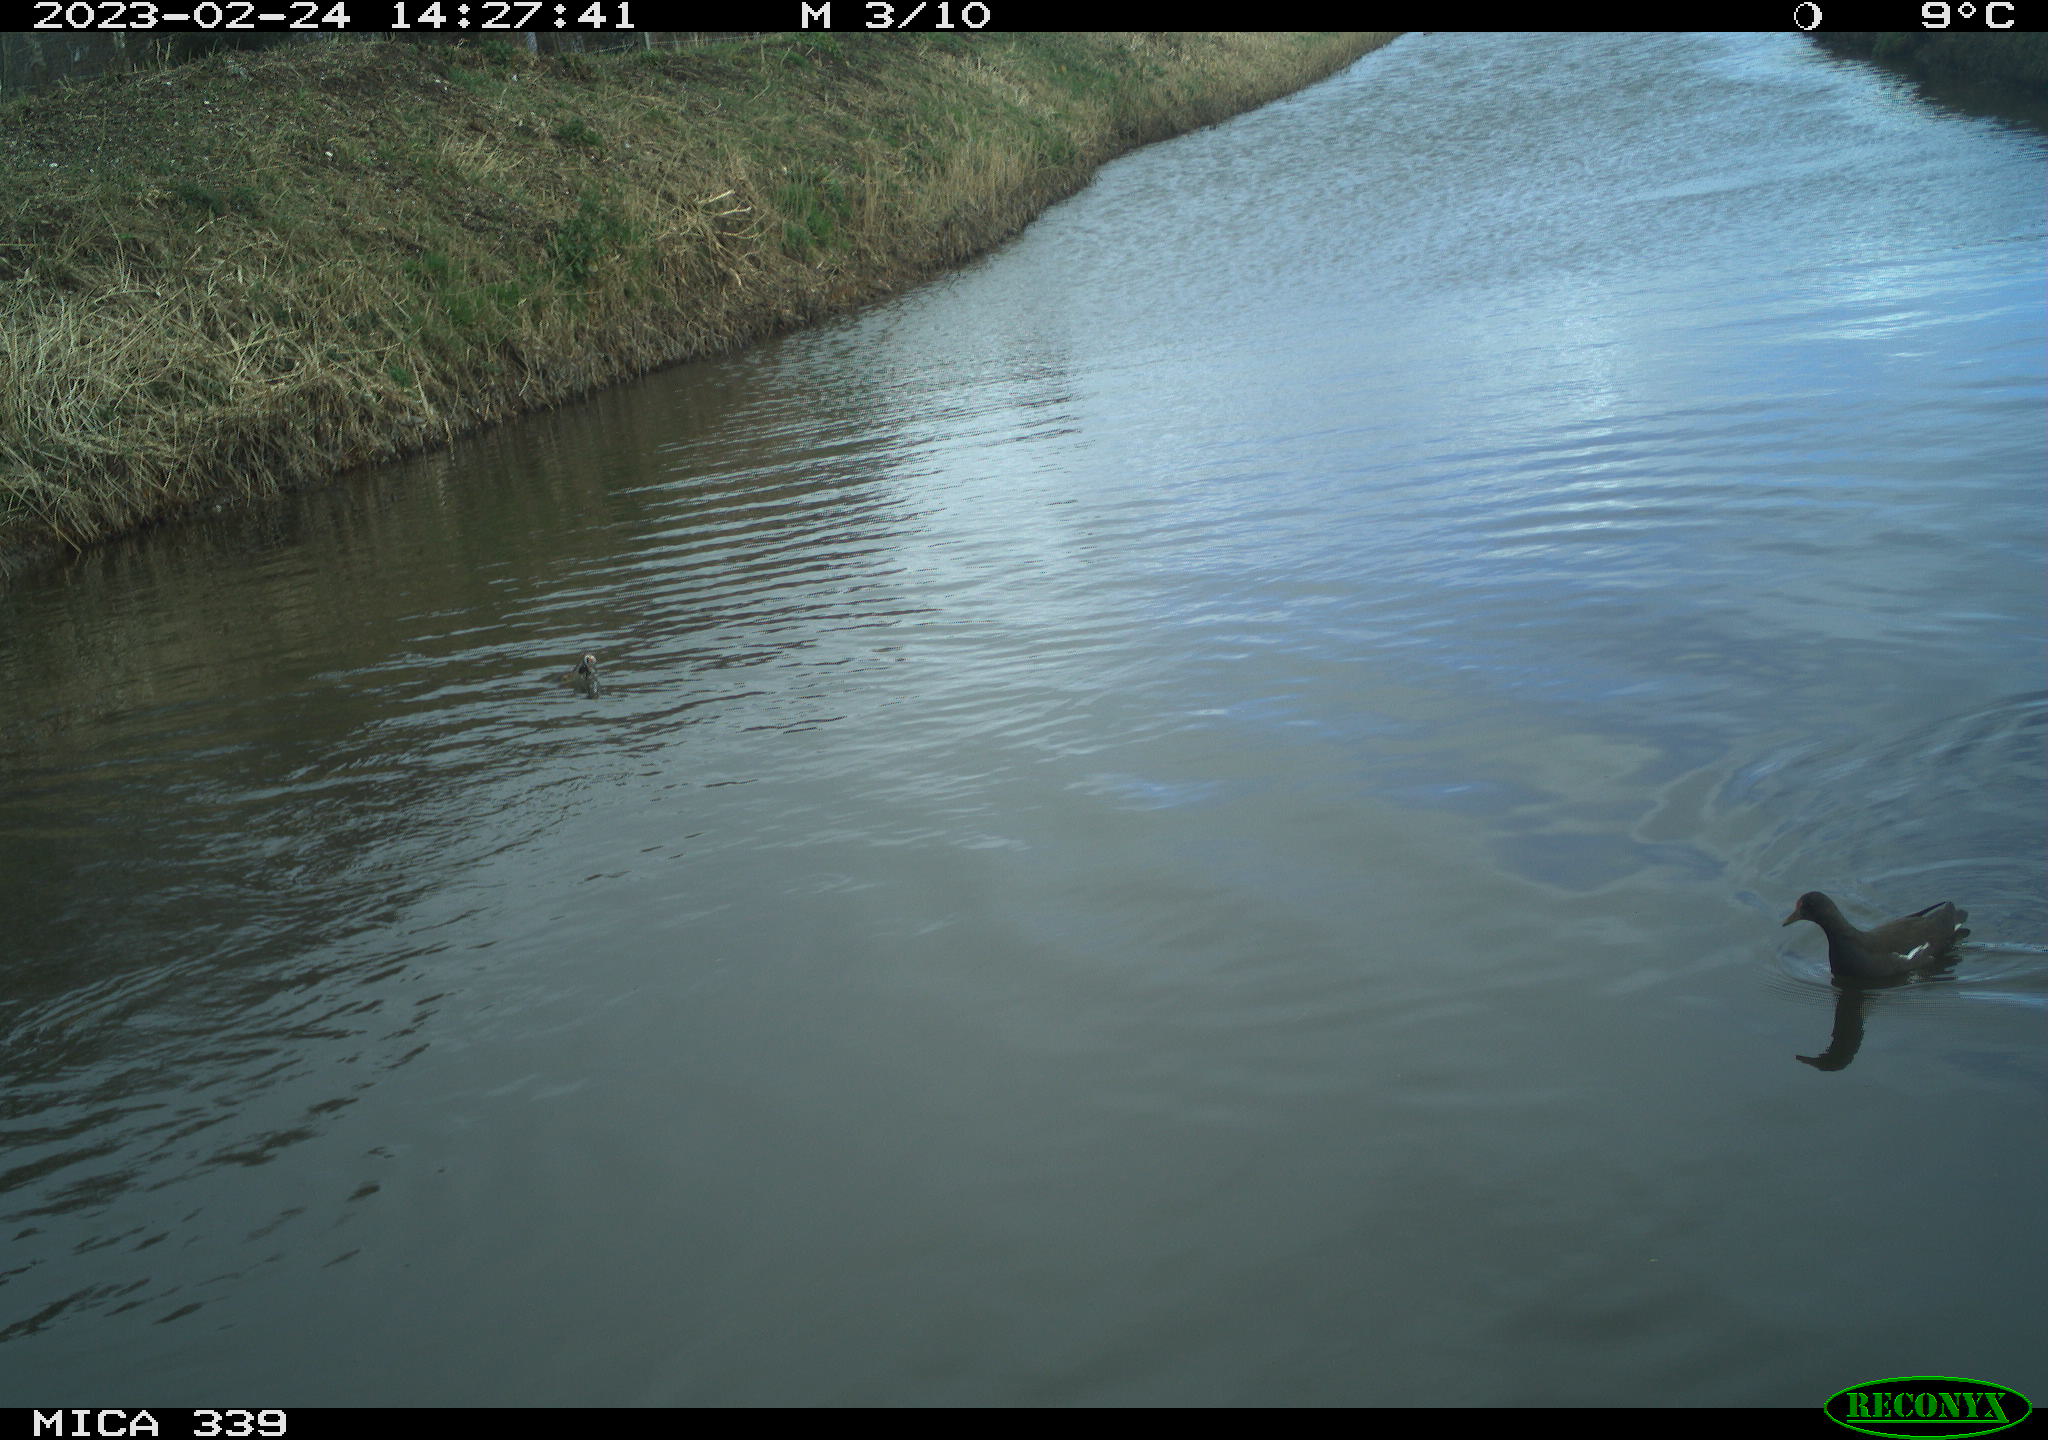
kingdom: Animalia
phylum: Chordata
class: Aves
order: Gruiformes
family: Rallidae
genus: Gallinula
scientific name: Gallinula chloropus
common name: Common moorhen
